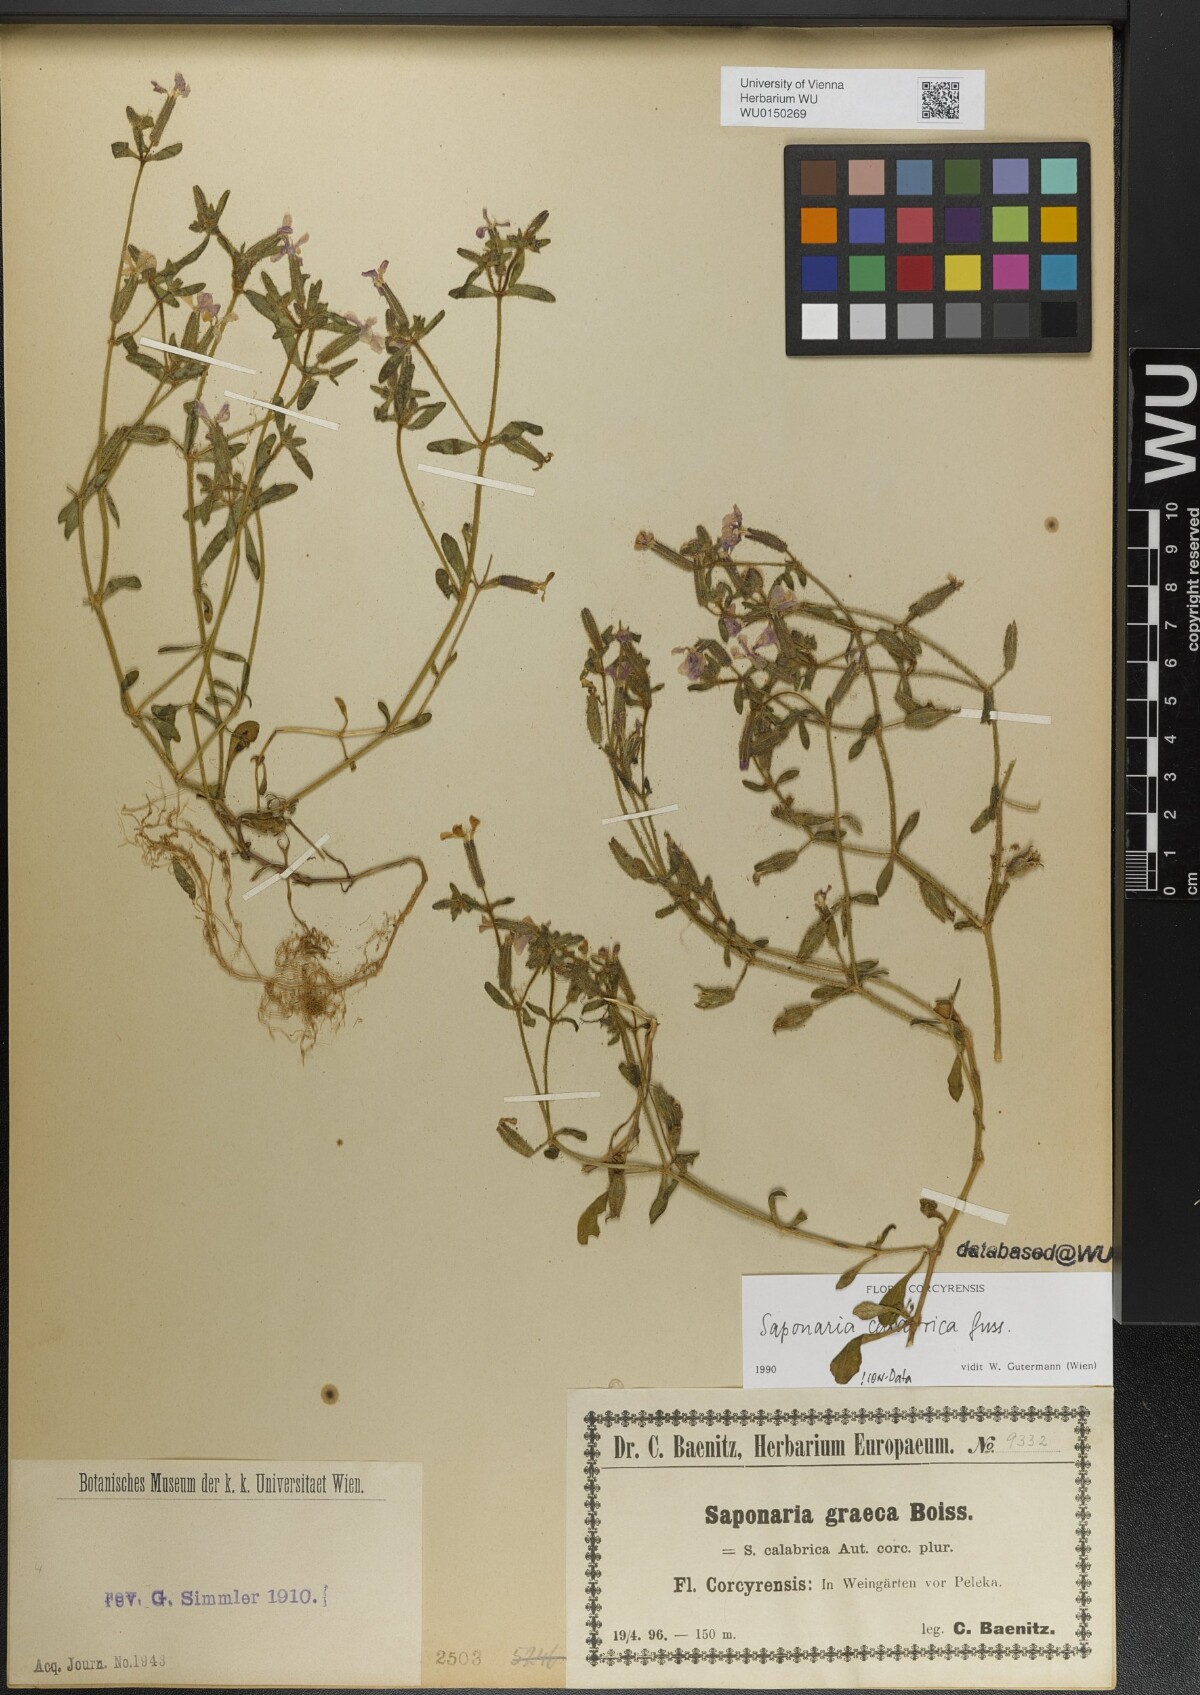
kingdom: Plantae
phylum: Tracheophyta
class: Magnoliopsida
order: Caryophyllales
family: Caryophyllaceae
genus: Saponaria
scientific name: Saponaria calabrica
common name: Adriatic soapwort
